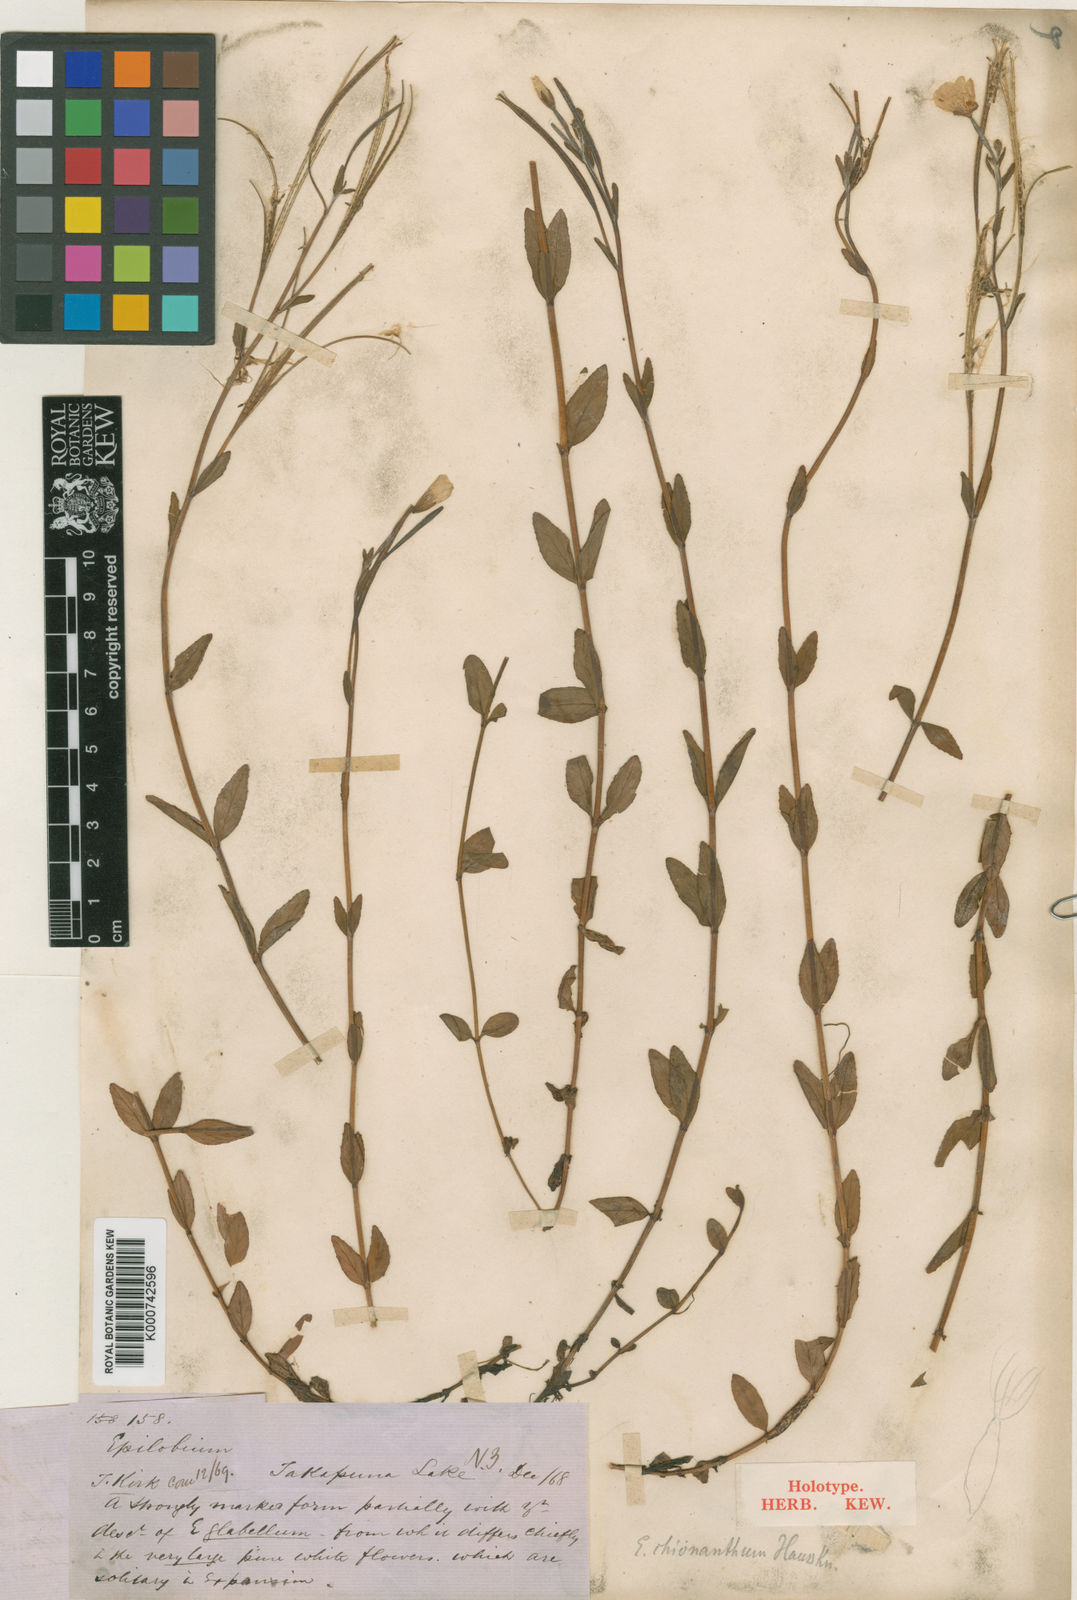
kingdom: Plantae
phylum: Tracheophyta
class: Magnoliopsida
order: Myrtales
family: Onagraceae
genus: Epilobium
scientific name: Epilobium chionanthum
